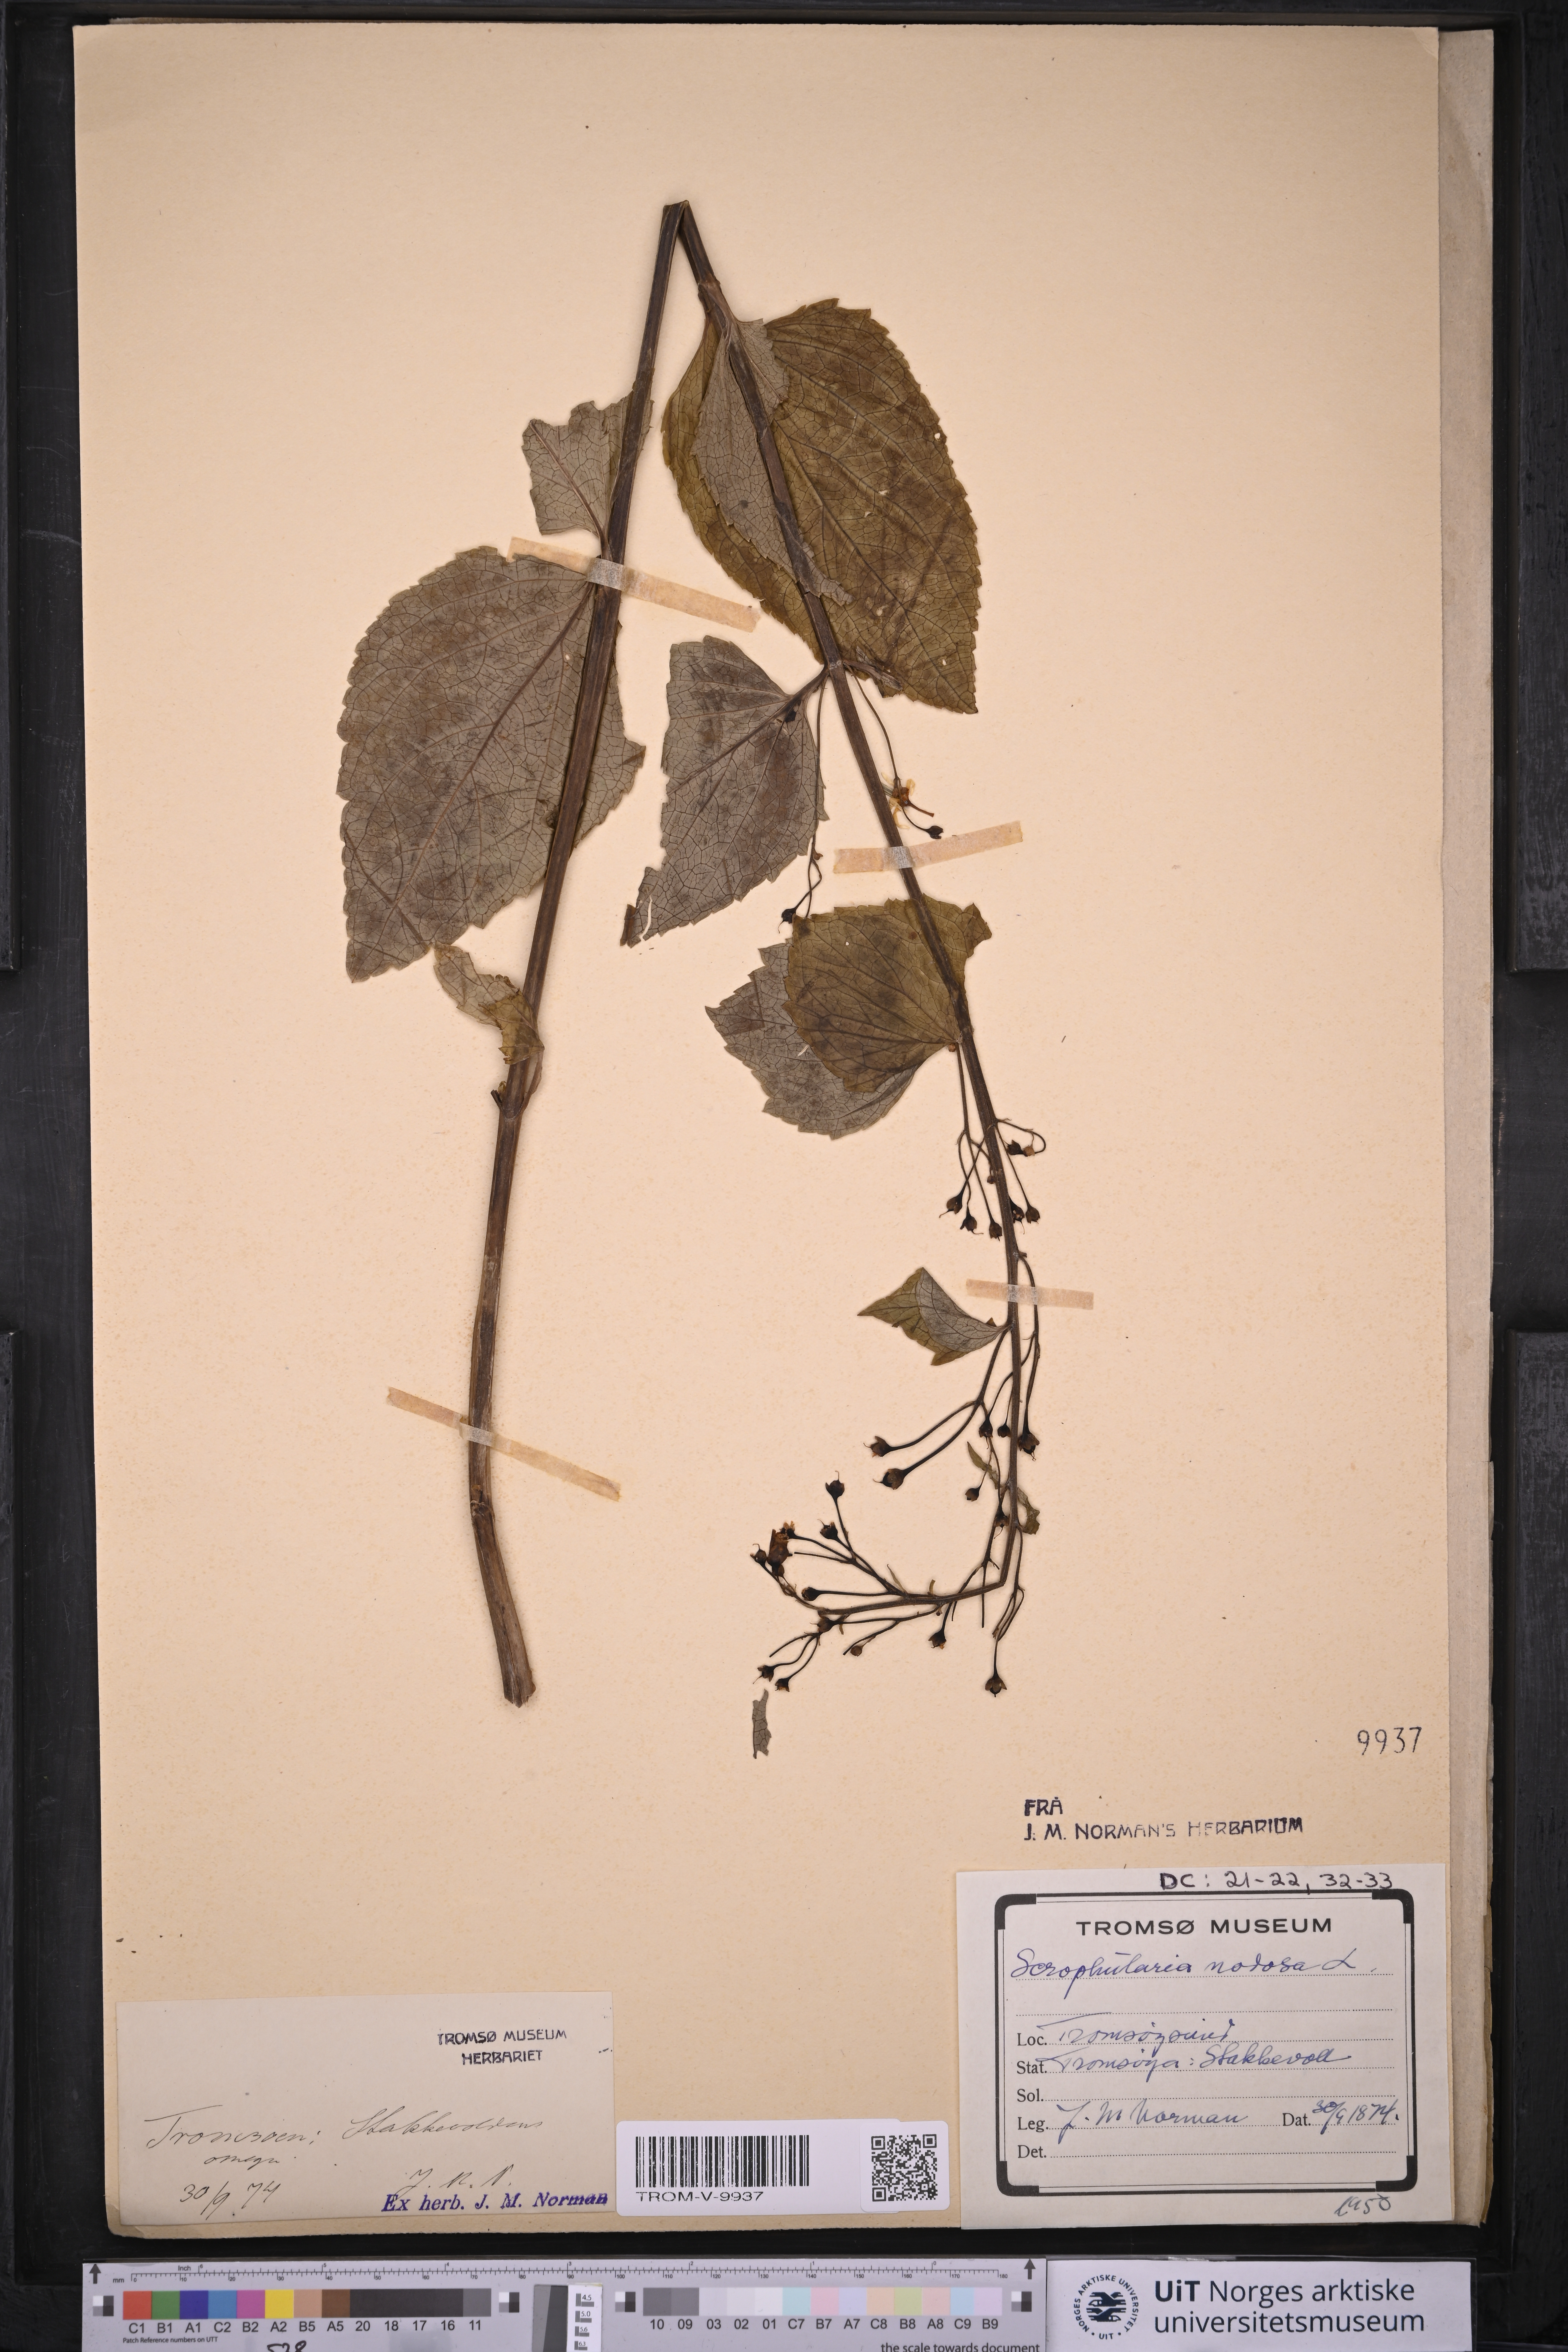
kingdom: Plantae
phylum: Tracheophyta
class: Magnoliopsida
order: Lamiales
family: Scrophulariaceae
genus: Scrophularia
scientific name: Scrophularia nodosa
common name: Common figwort
